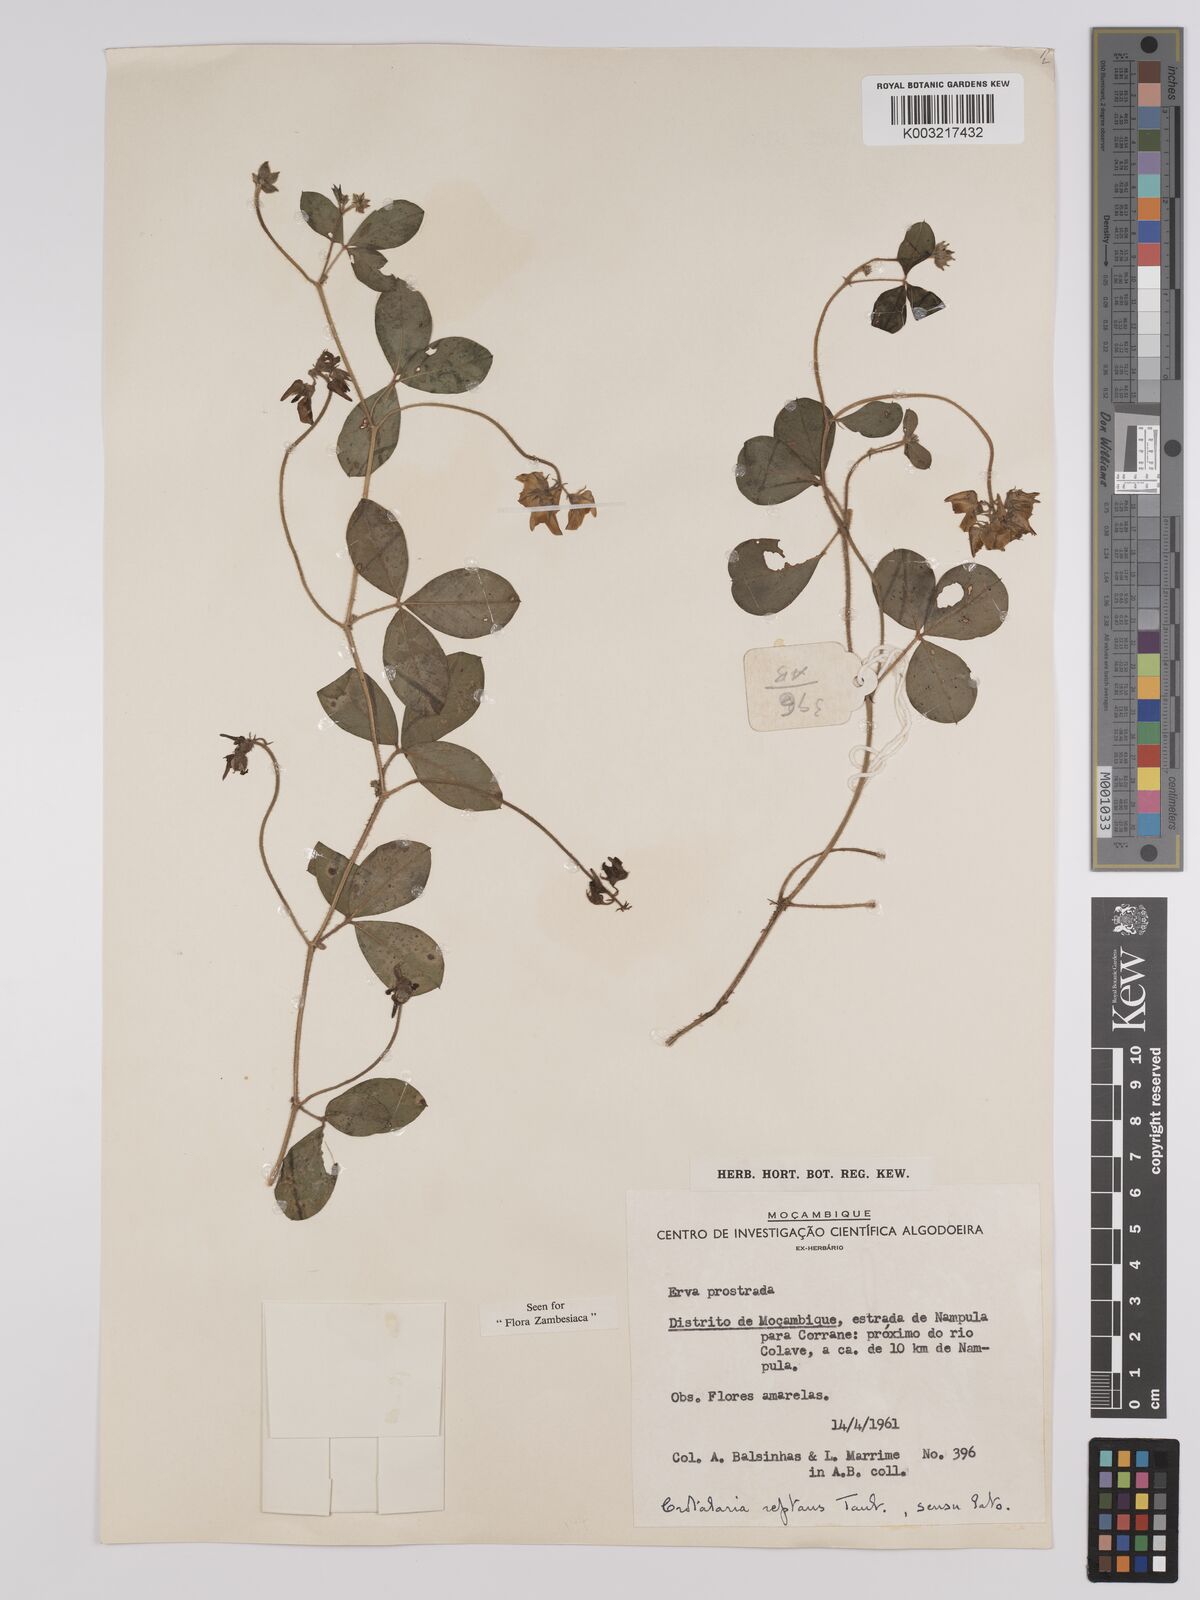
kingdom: Plantae
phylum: Tracheophyta
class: Magnoliopsida
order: Fabales
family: Fabaceae
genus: Crotalaria
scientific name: Crotalaria reptans
